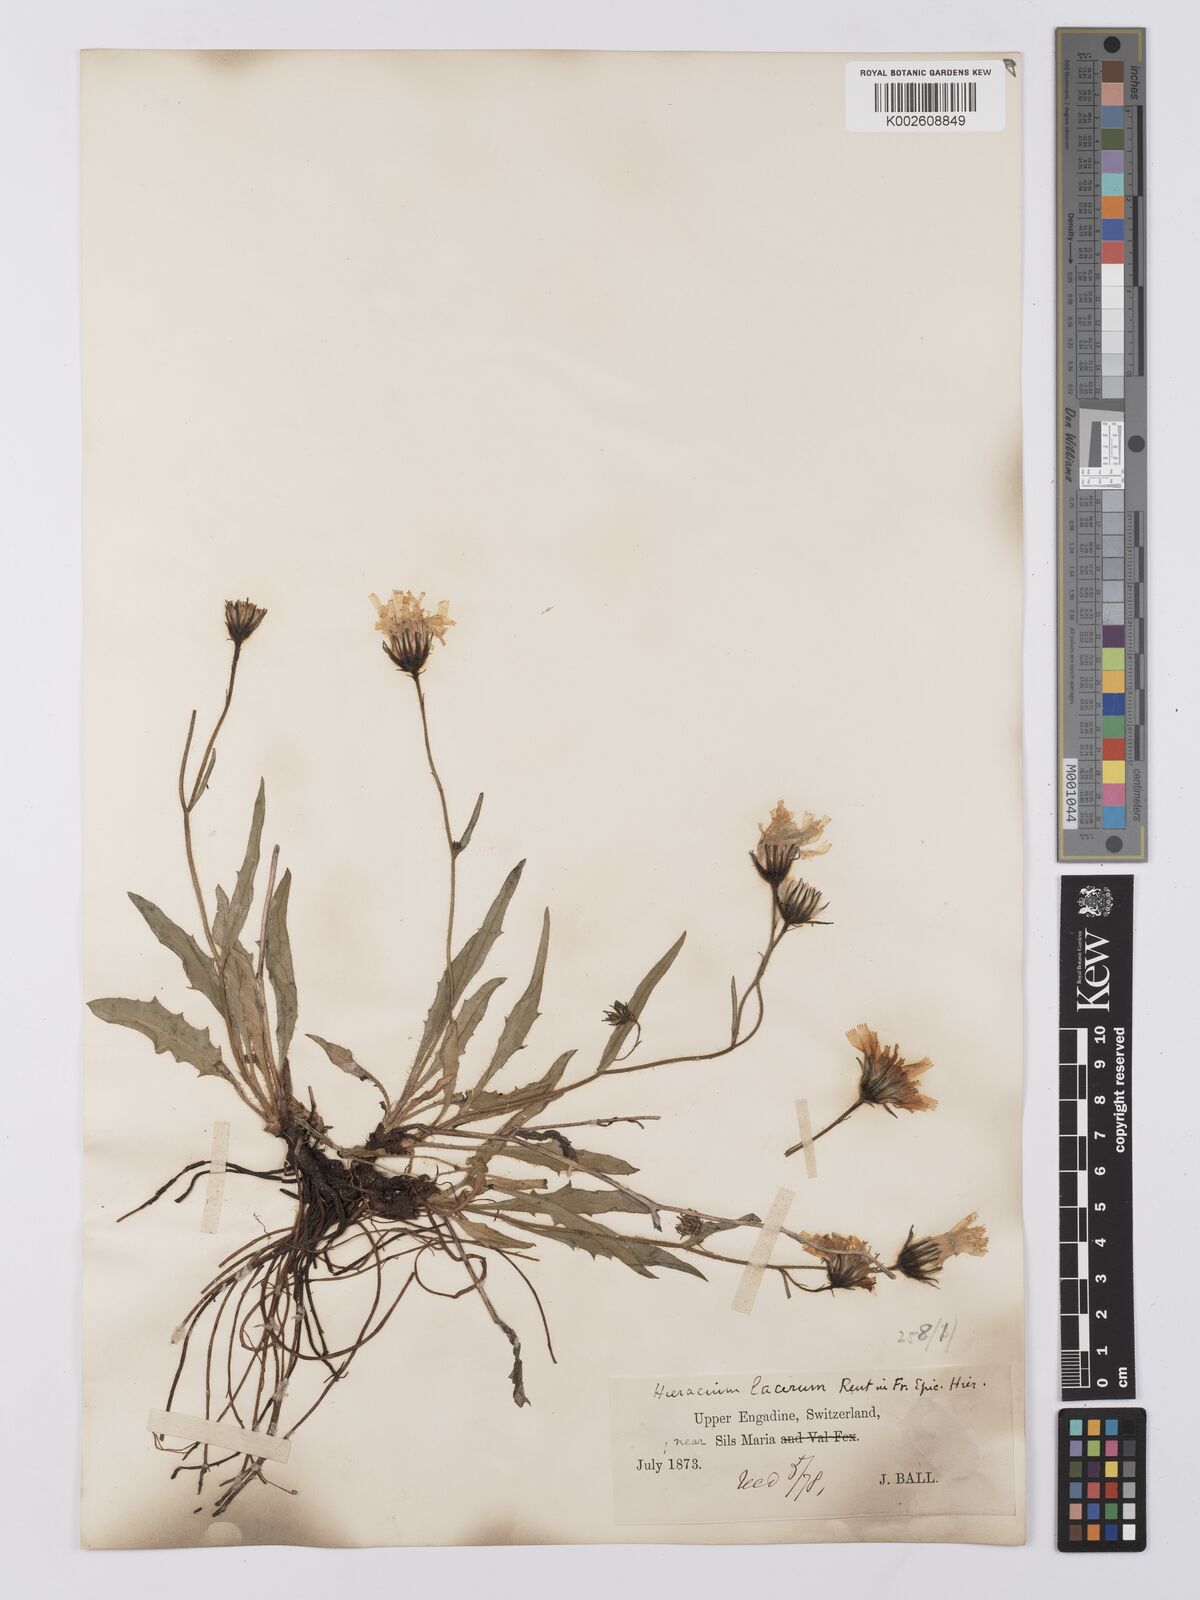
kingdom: Plantae
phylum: Tracheophyta
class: Magnoliopsida
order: Asterales
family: Asteraceae
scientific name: Asteraceae
